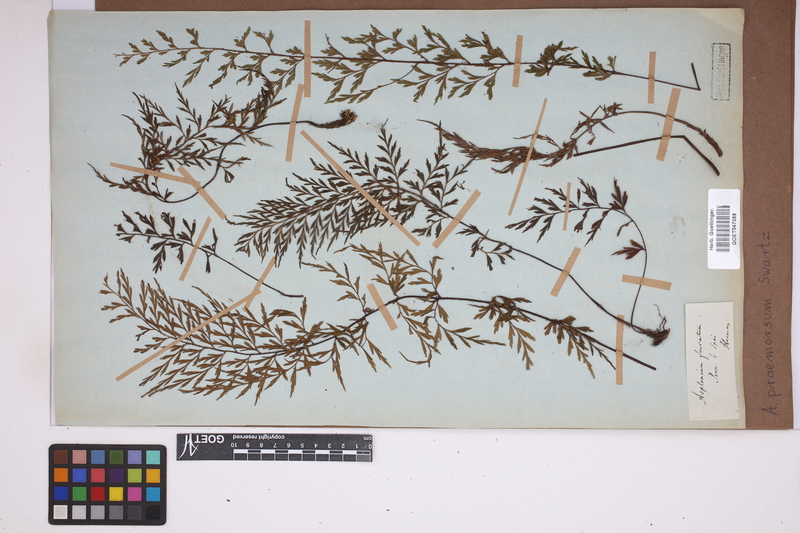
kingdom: Plantae
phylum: Tracheophyta
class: Polypodiopsida
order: Polypodiales
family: Aspleniaceae
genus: Asplenium
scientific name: Asplenium praemorsum
